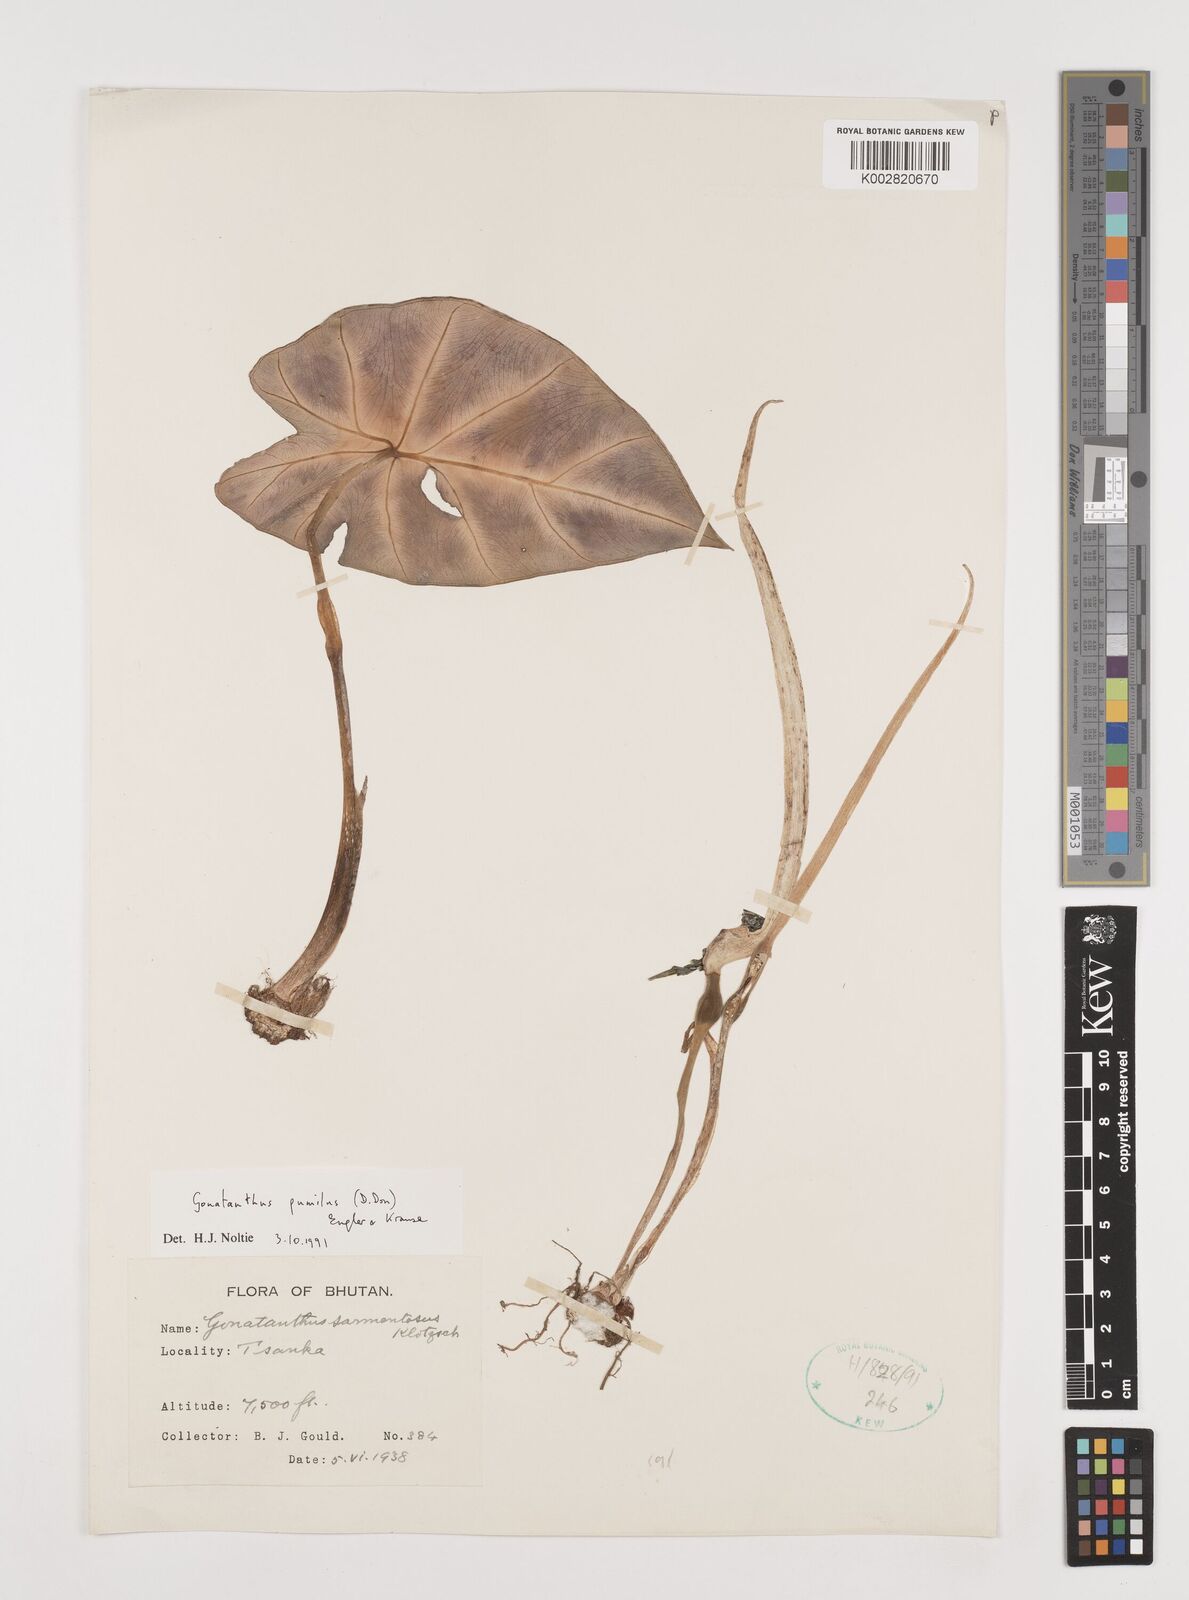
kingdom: Plantae
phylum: Tracheophyta
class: Liliopsida
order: Alismatales
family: Araceae
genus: Remusatia
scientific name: Remusatia pumila
